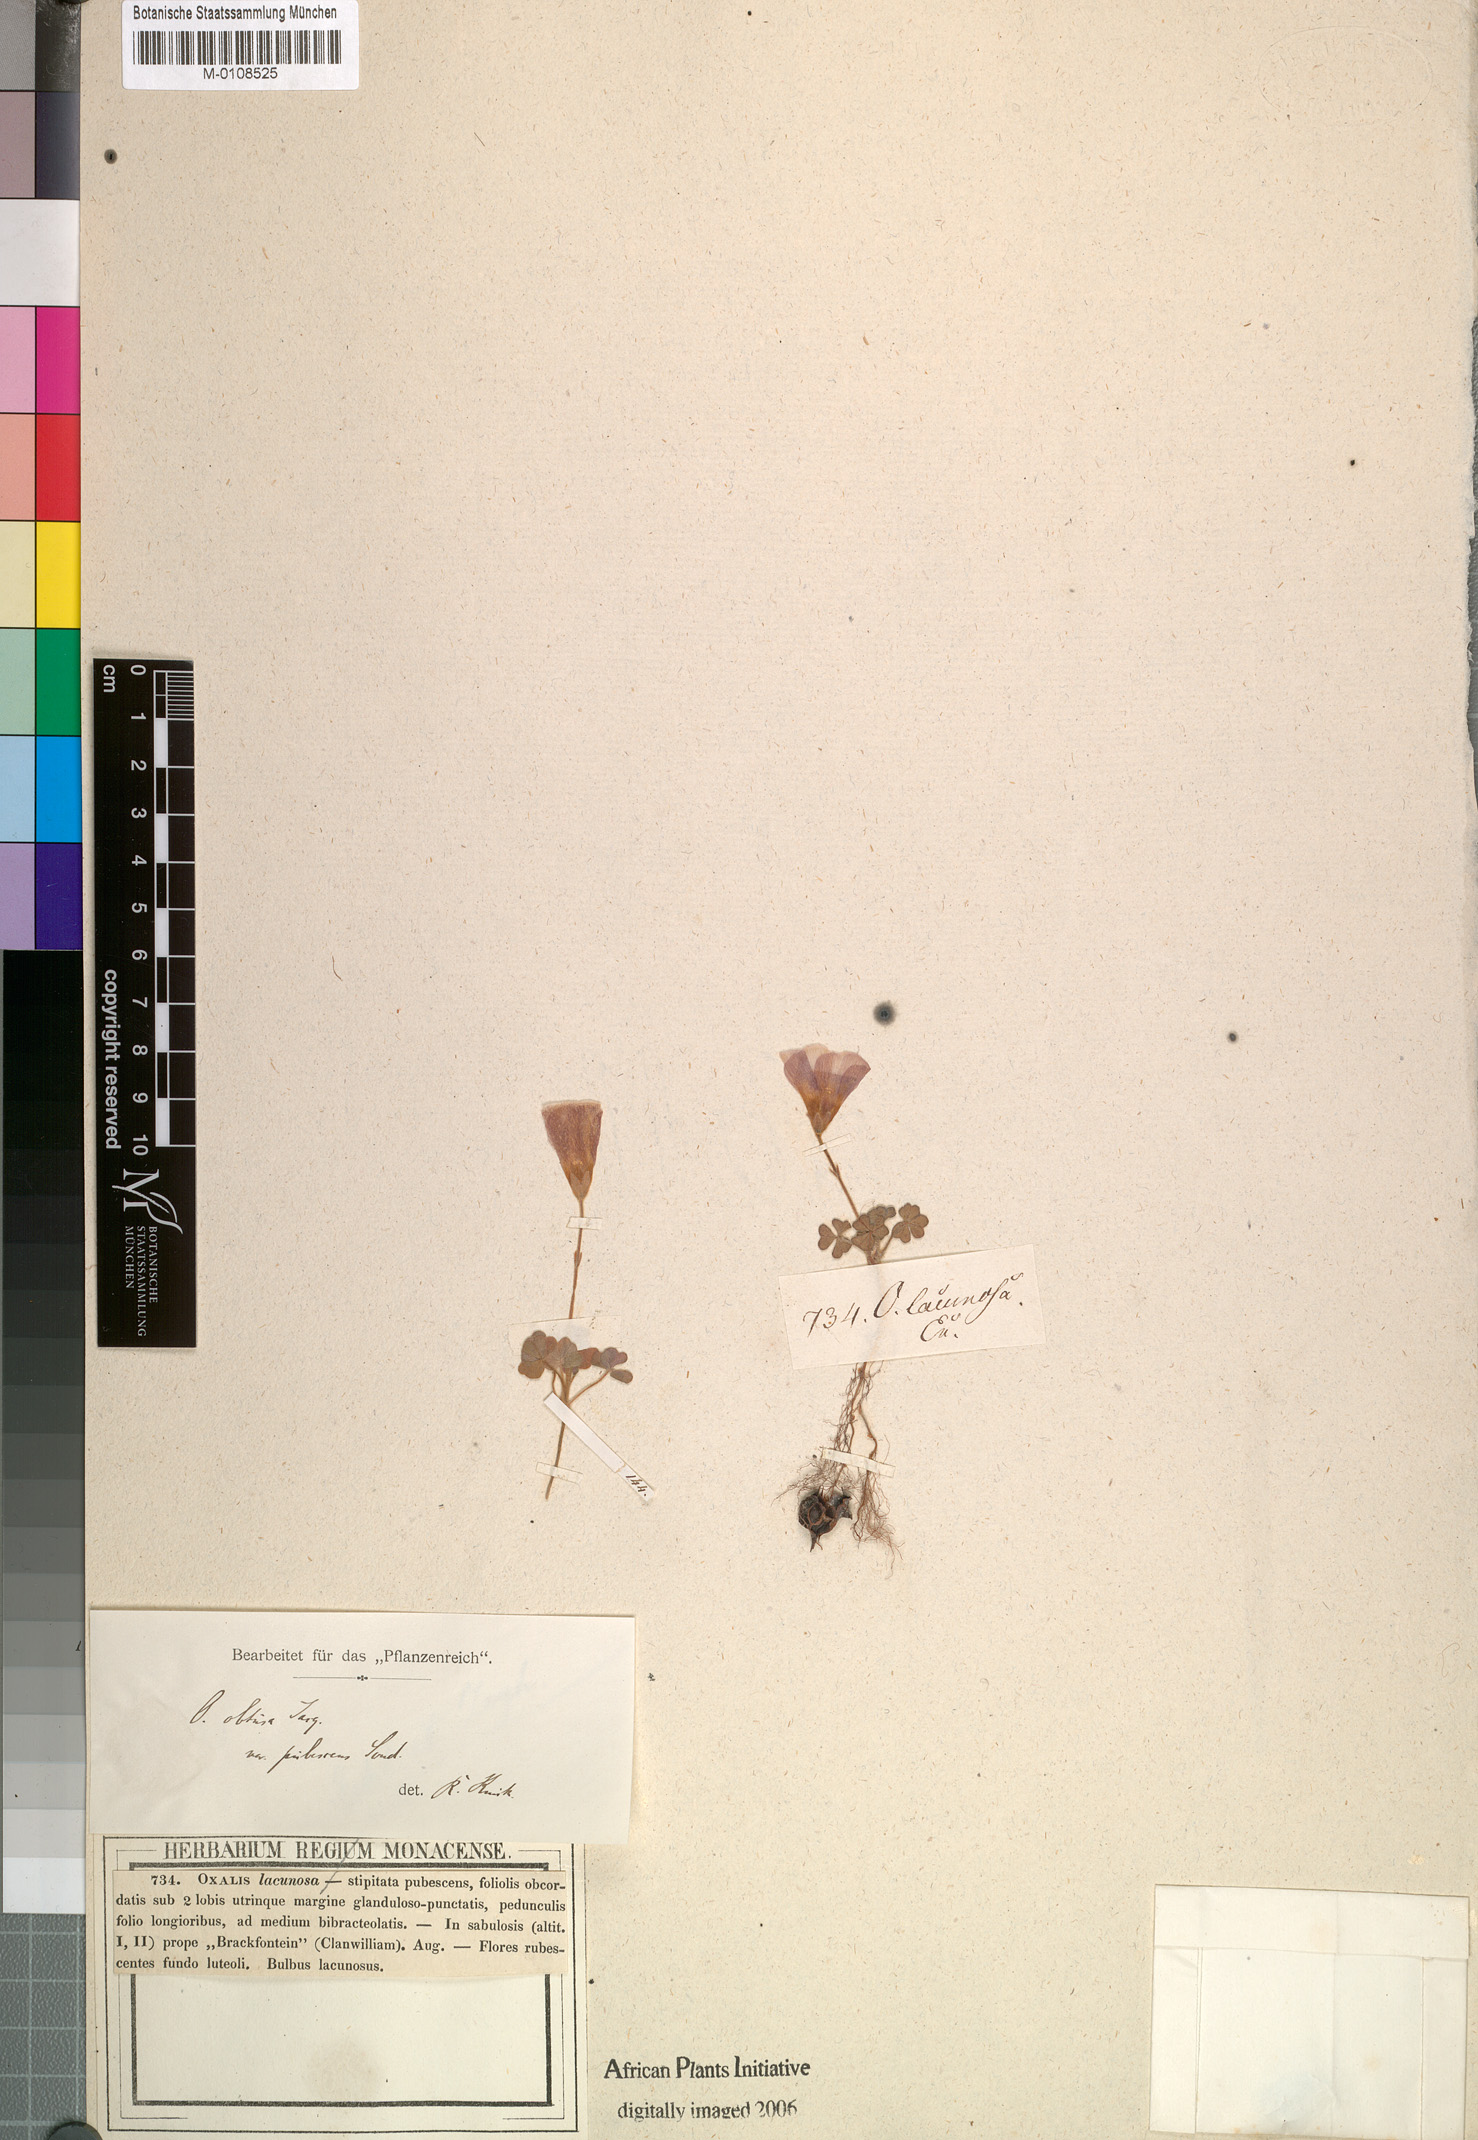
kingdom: Plantae
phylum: Tracheophyta
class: Magnoliopsida
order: Oxalidales
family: Oxalidaceae
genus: Oxalis
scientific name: Oxalis obtusa
